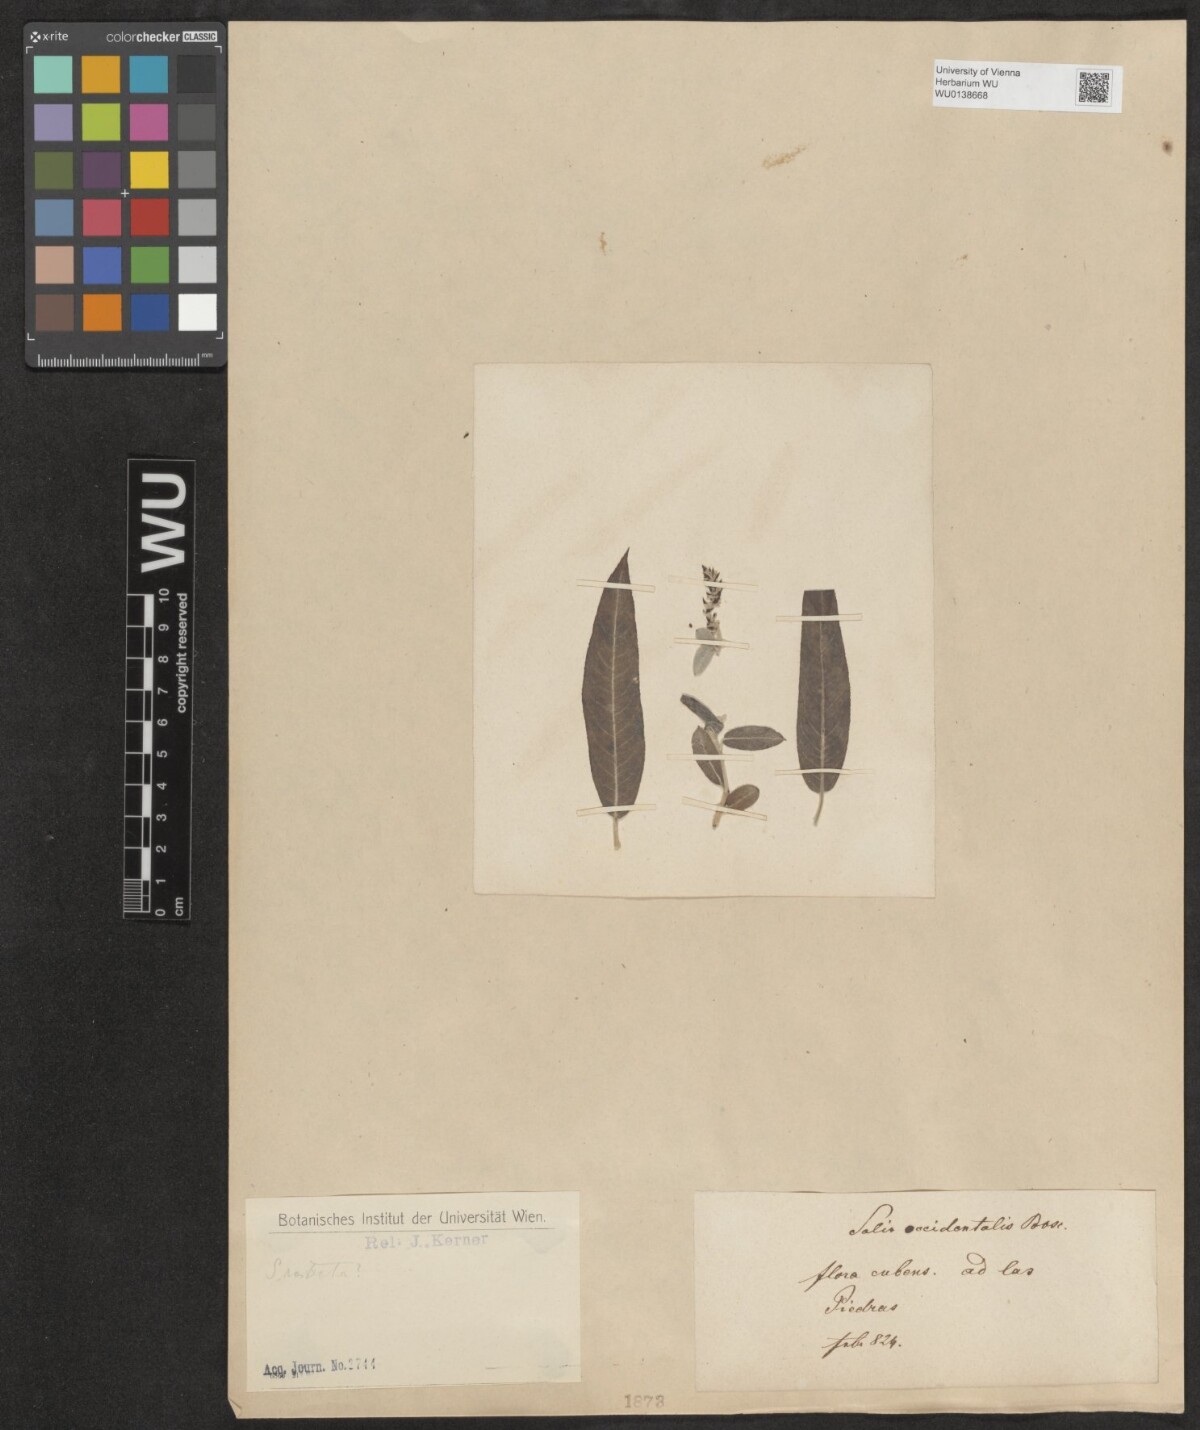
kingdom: Plantae
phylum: Tracheophyta
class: Magnoliopsida
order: Malpighiales
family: Salicaceae
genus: Salix
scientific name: Salix humilis
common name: Prairie willow
